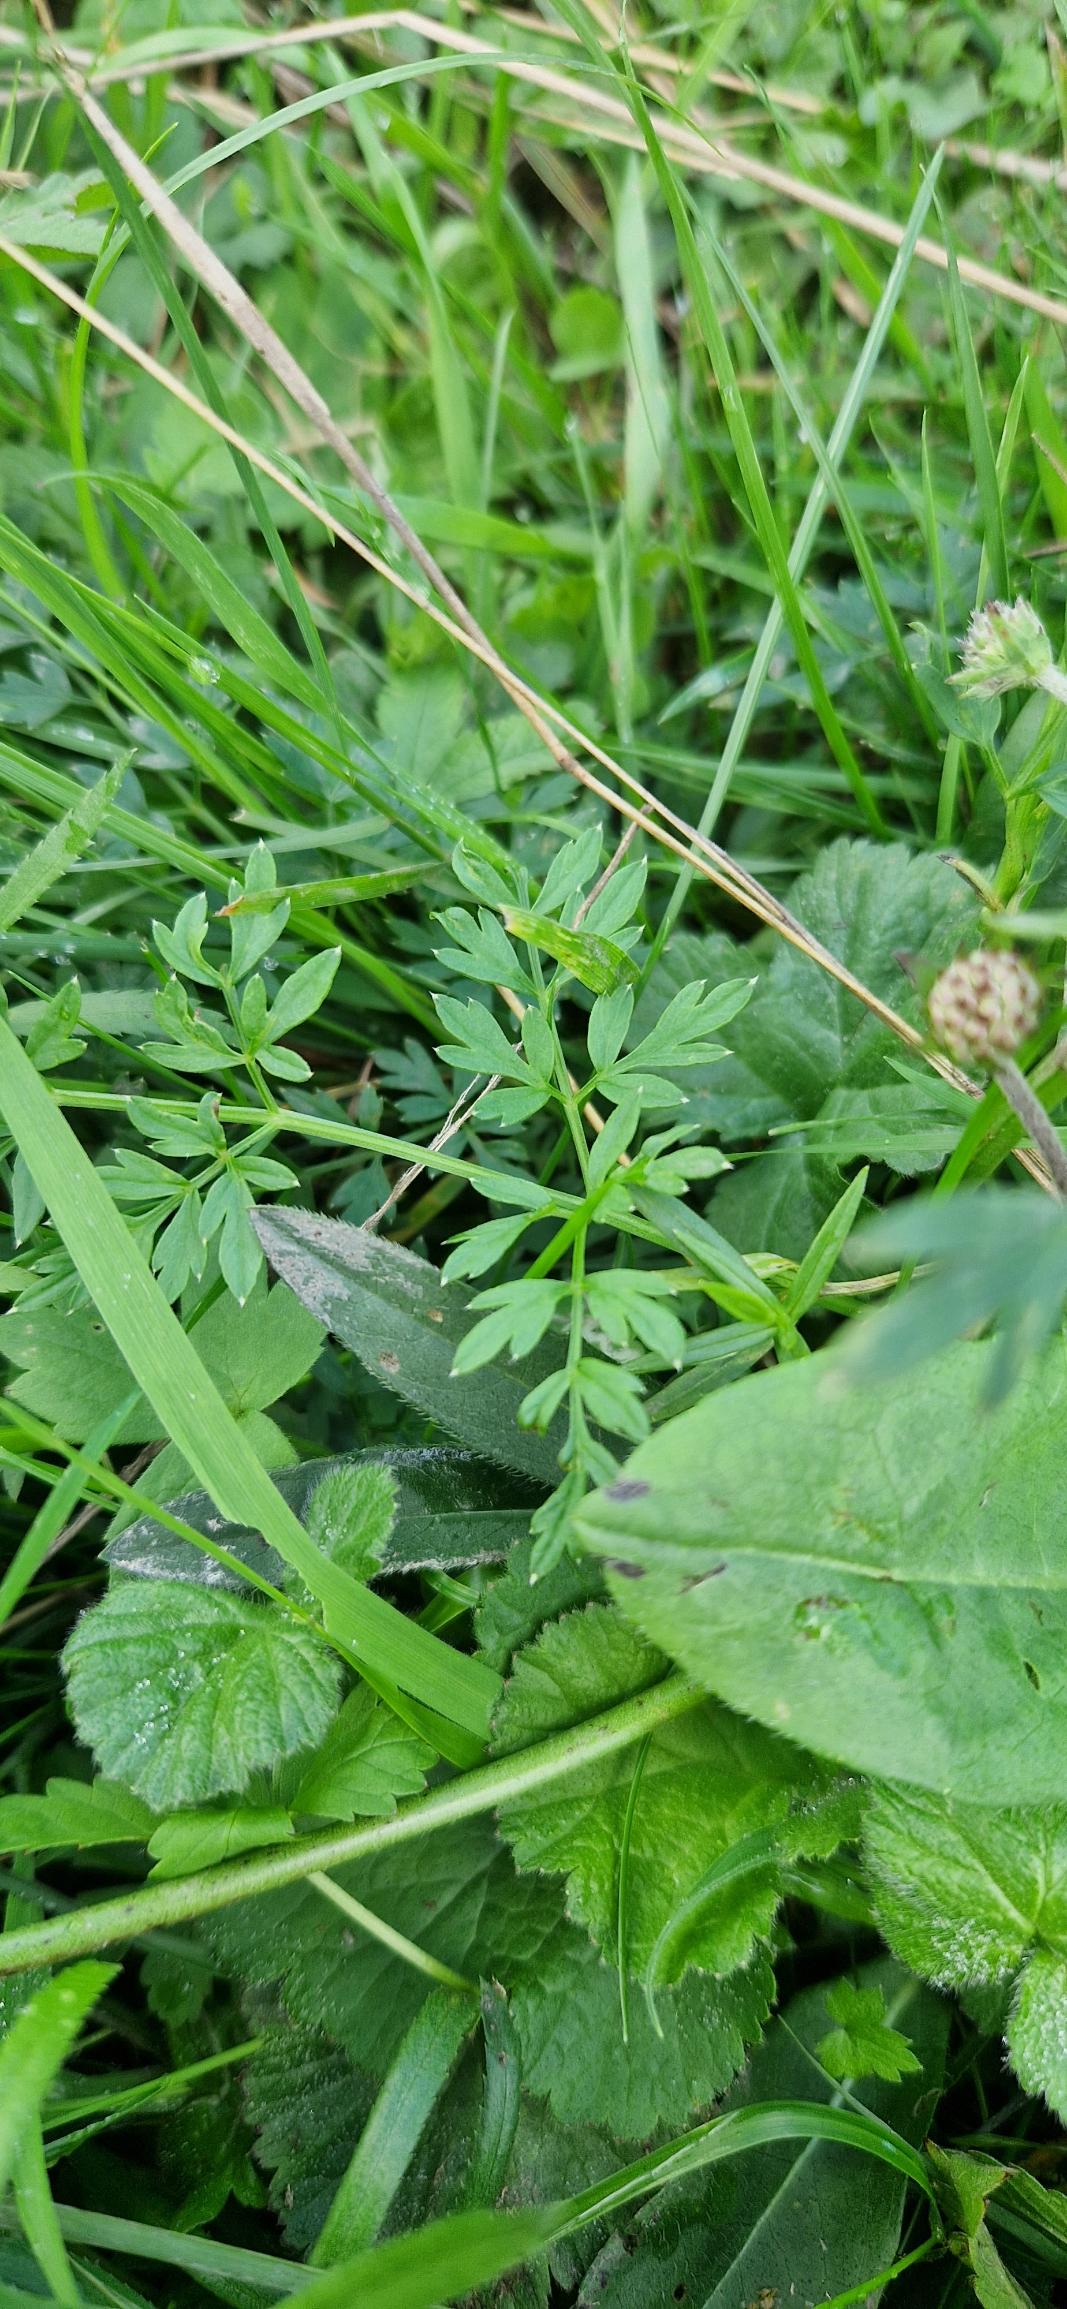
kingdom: Plantae
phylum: Tracheophyta
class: Magnoliopsida
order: Apiales
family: Apiaceae
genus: Selinum
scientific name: Selinum carvifolia
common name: Seline
